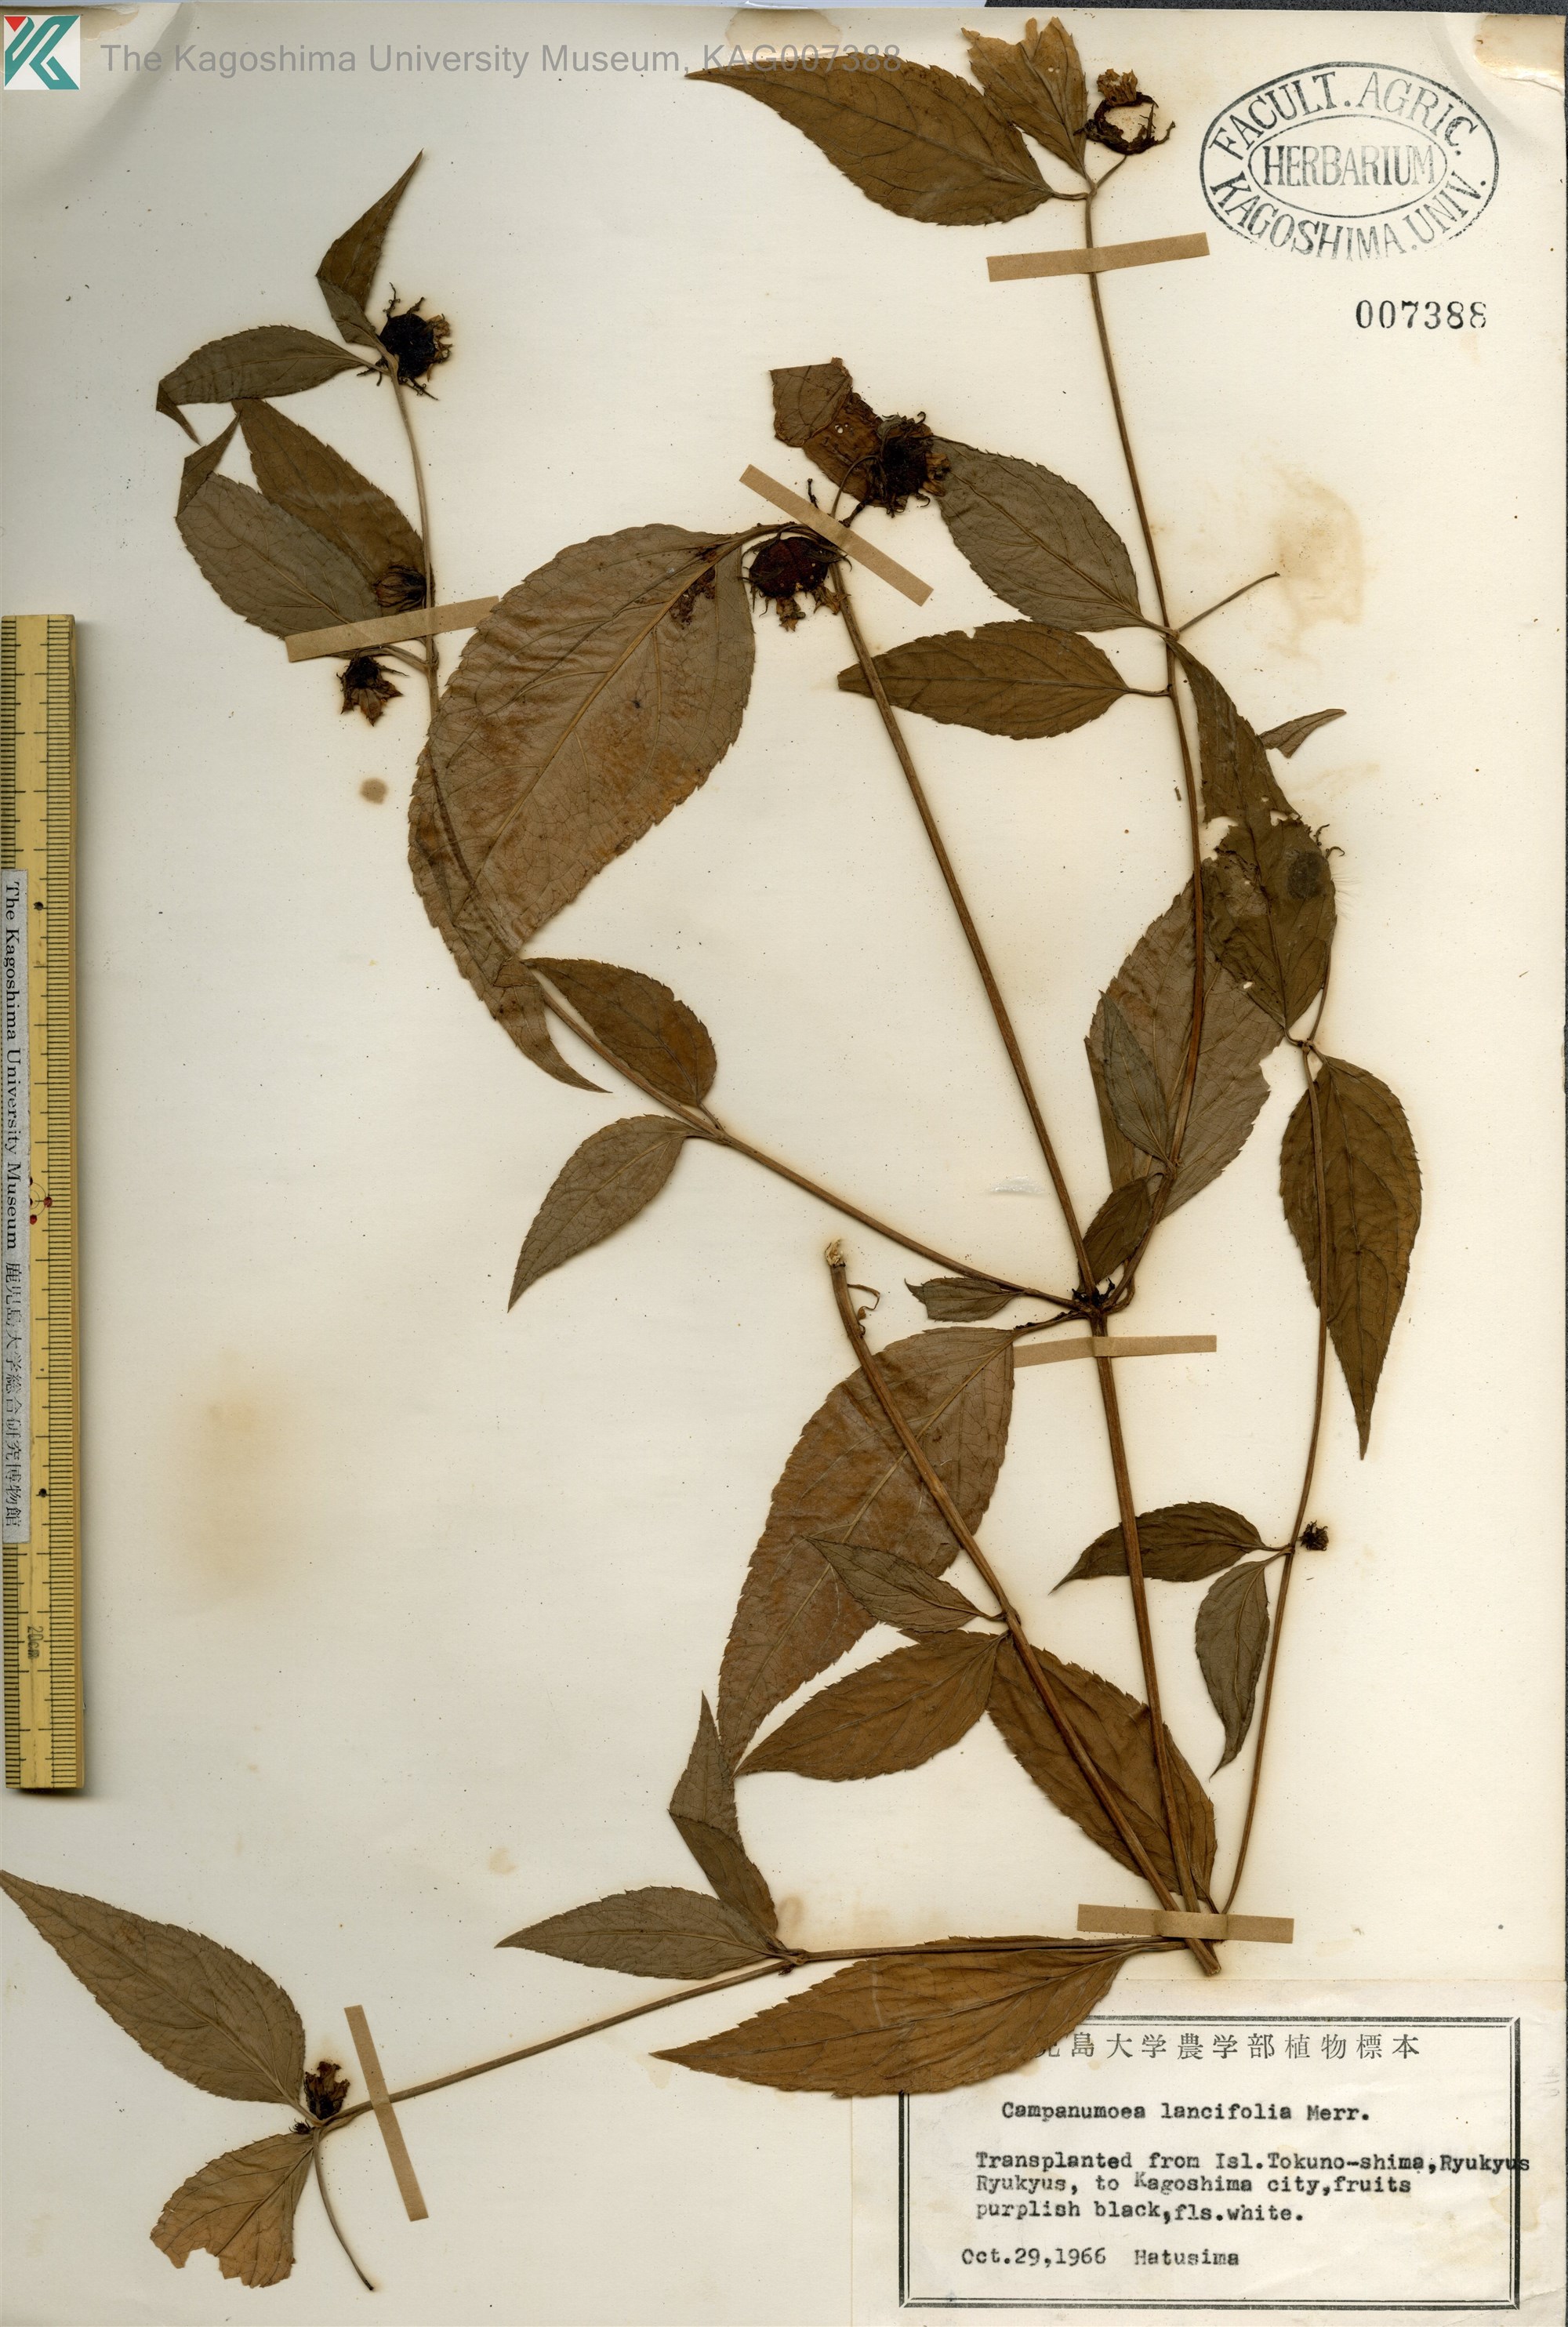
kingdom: Plantae
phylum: Tracheophyta
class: Magnoliopsida
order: Asterales
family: Campanulaceae
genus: Cyclocodon
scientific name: Cyclocodon lancifolius
